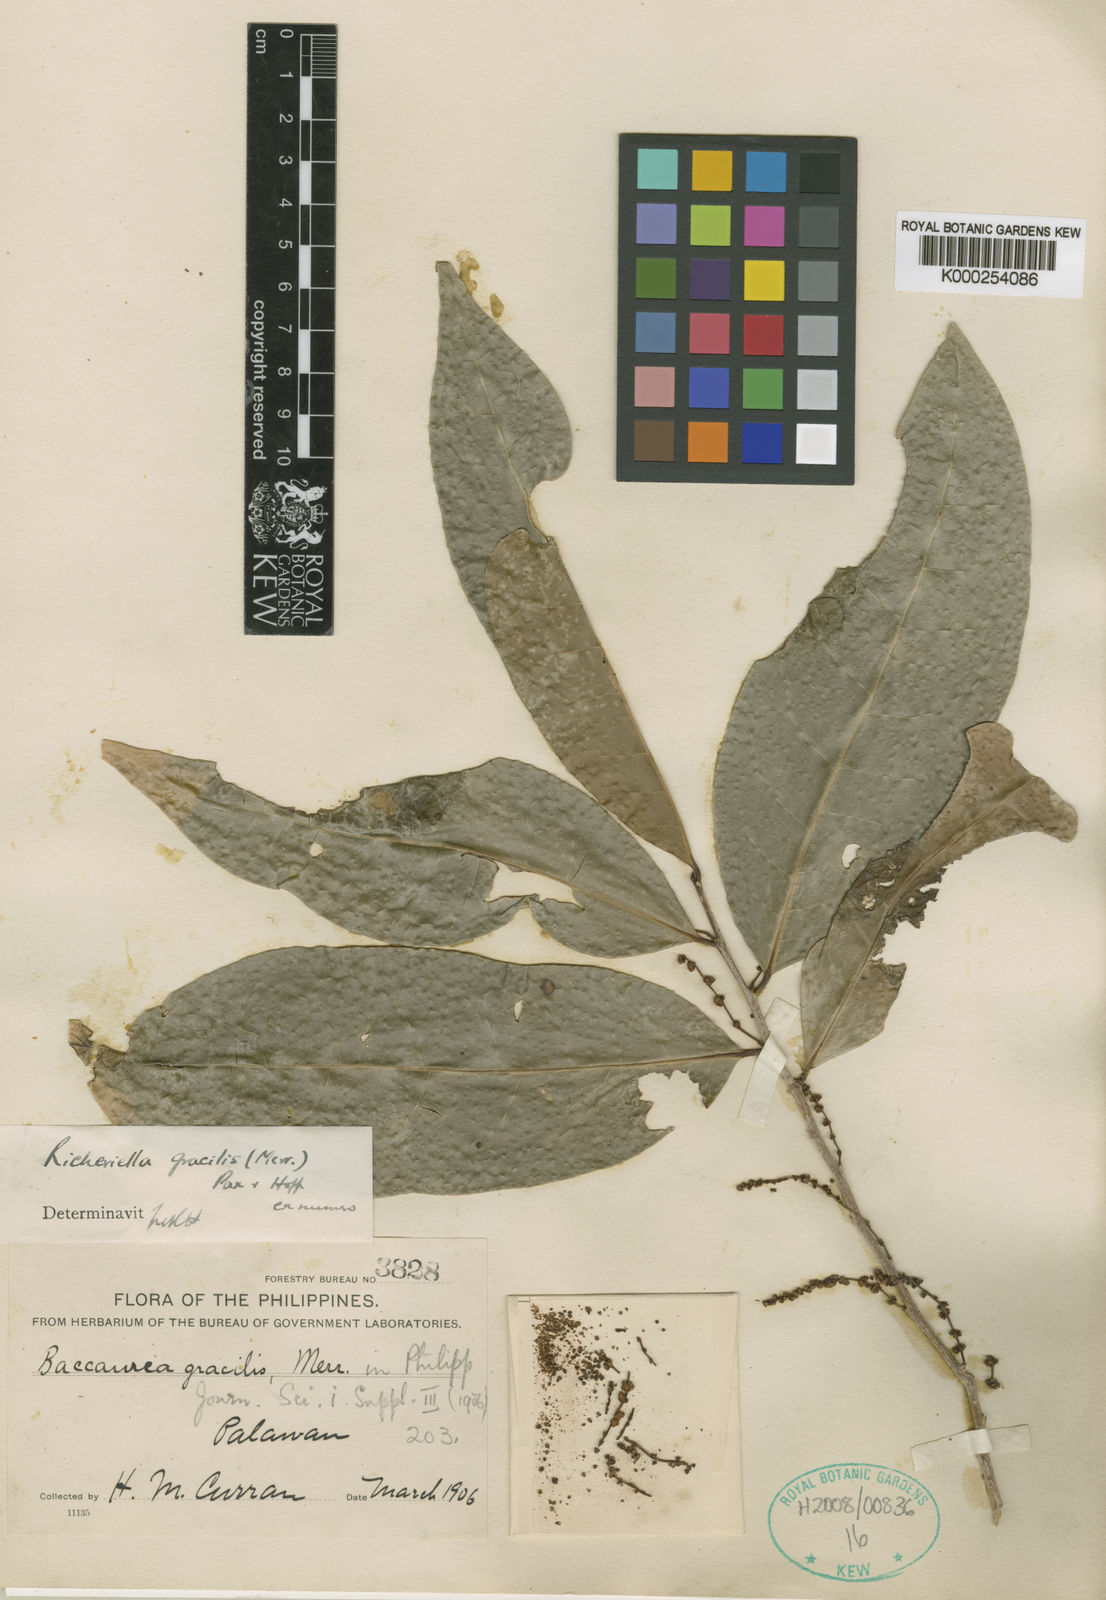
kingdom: Plantae
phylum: Tracheophyta
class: Magnoliopsida
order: Malpighiales
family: Phyllanthaceae
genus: Flueggea
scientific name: Flueggea gracilis
